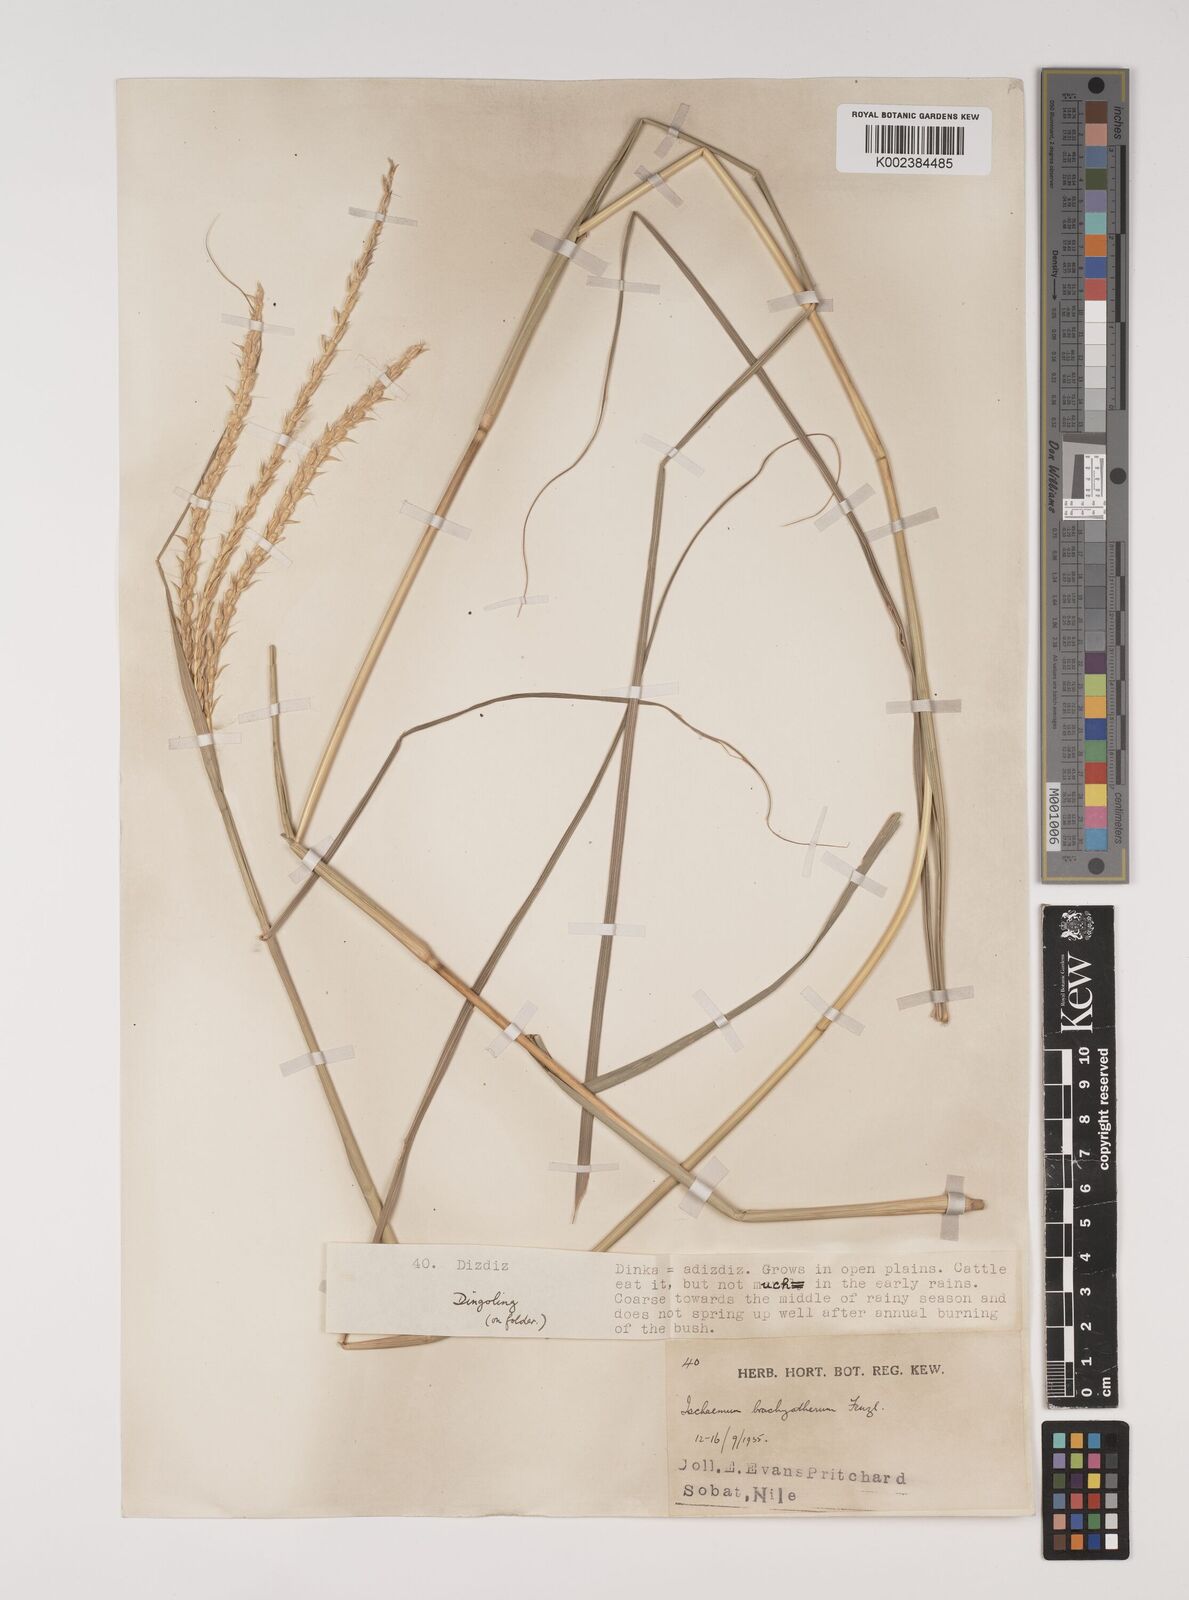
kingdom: Plantae
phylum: Tracheophyta
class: Liliopsida
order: Poales
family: Poaceae
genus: Ischaemum
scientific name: Ischaemum afrum
